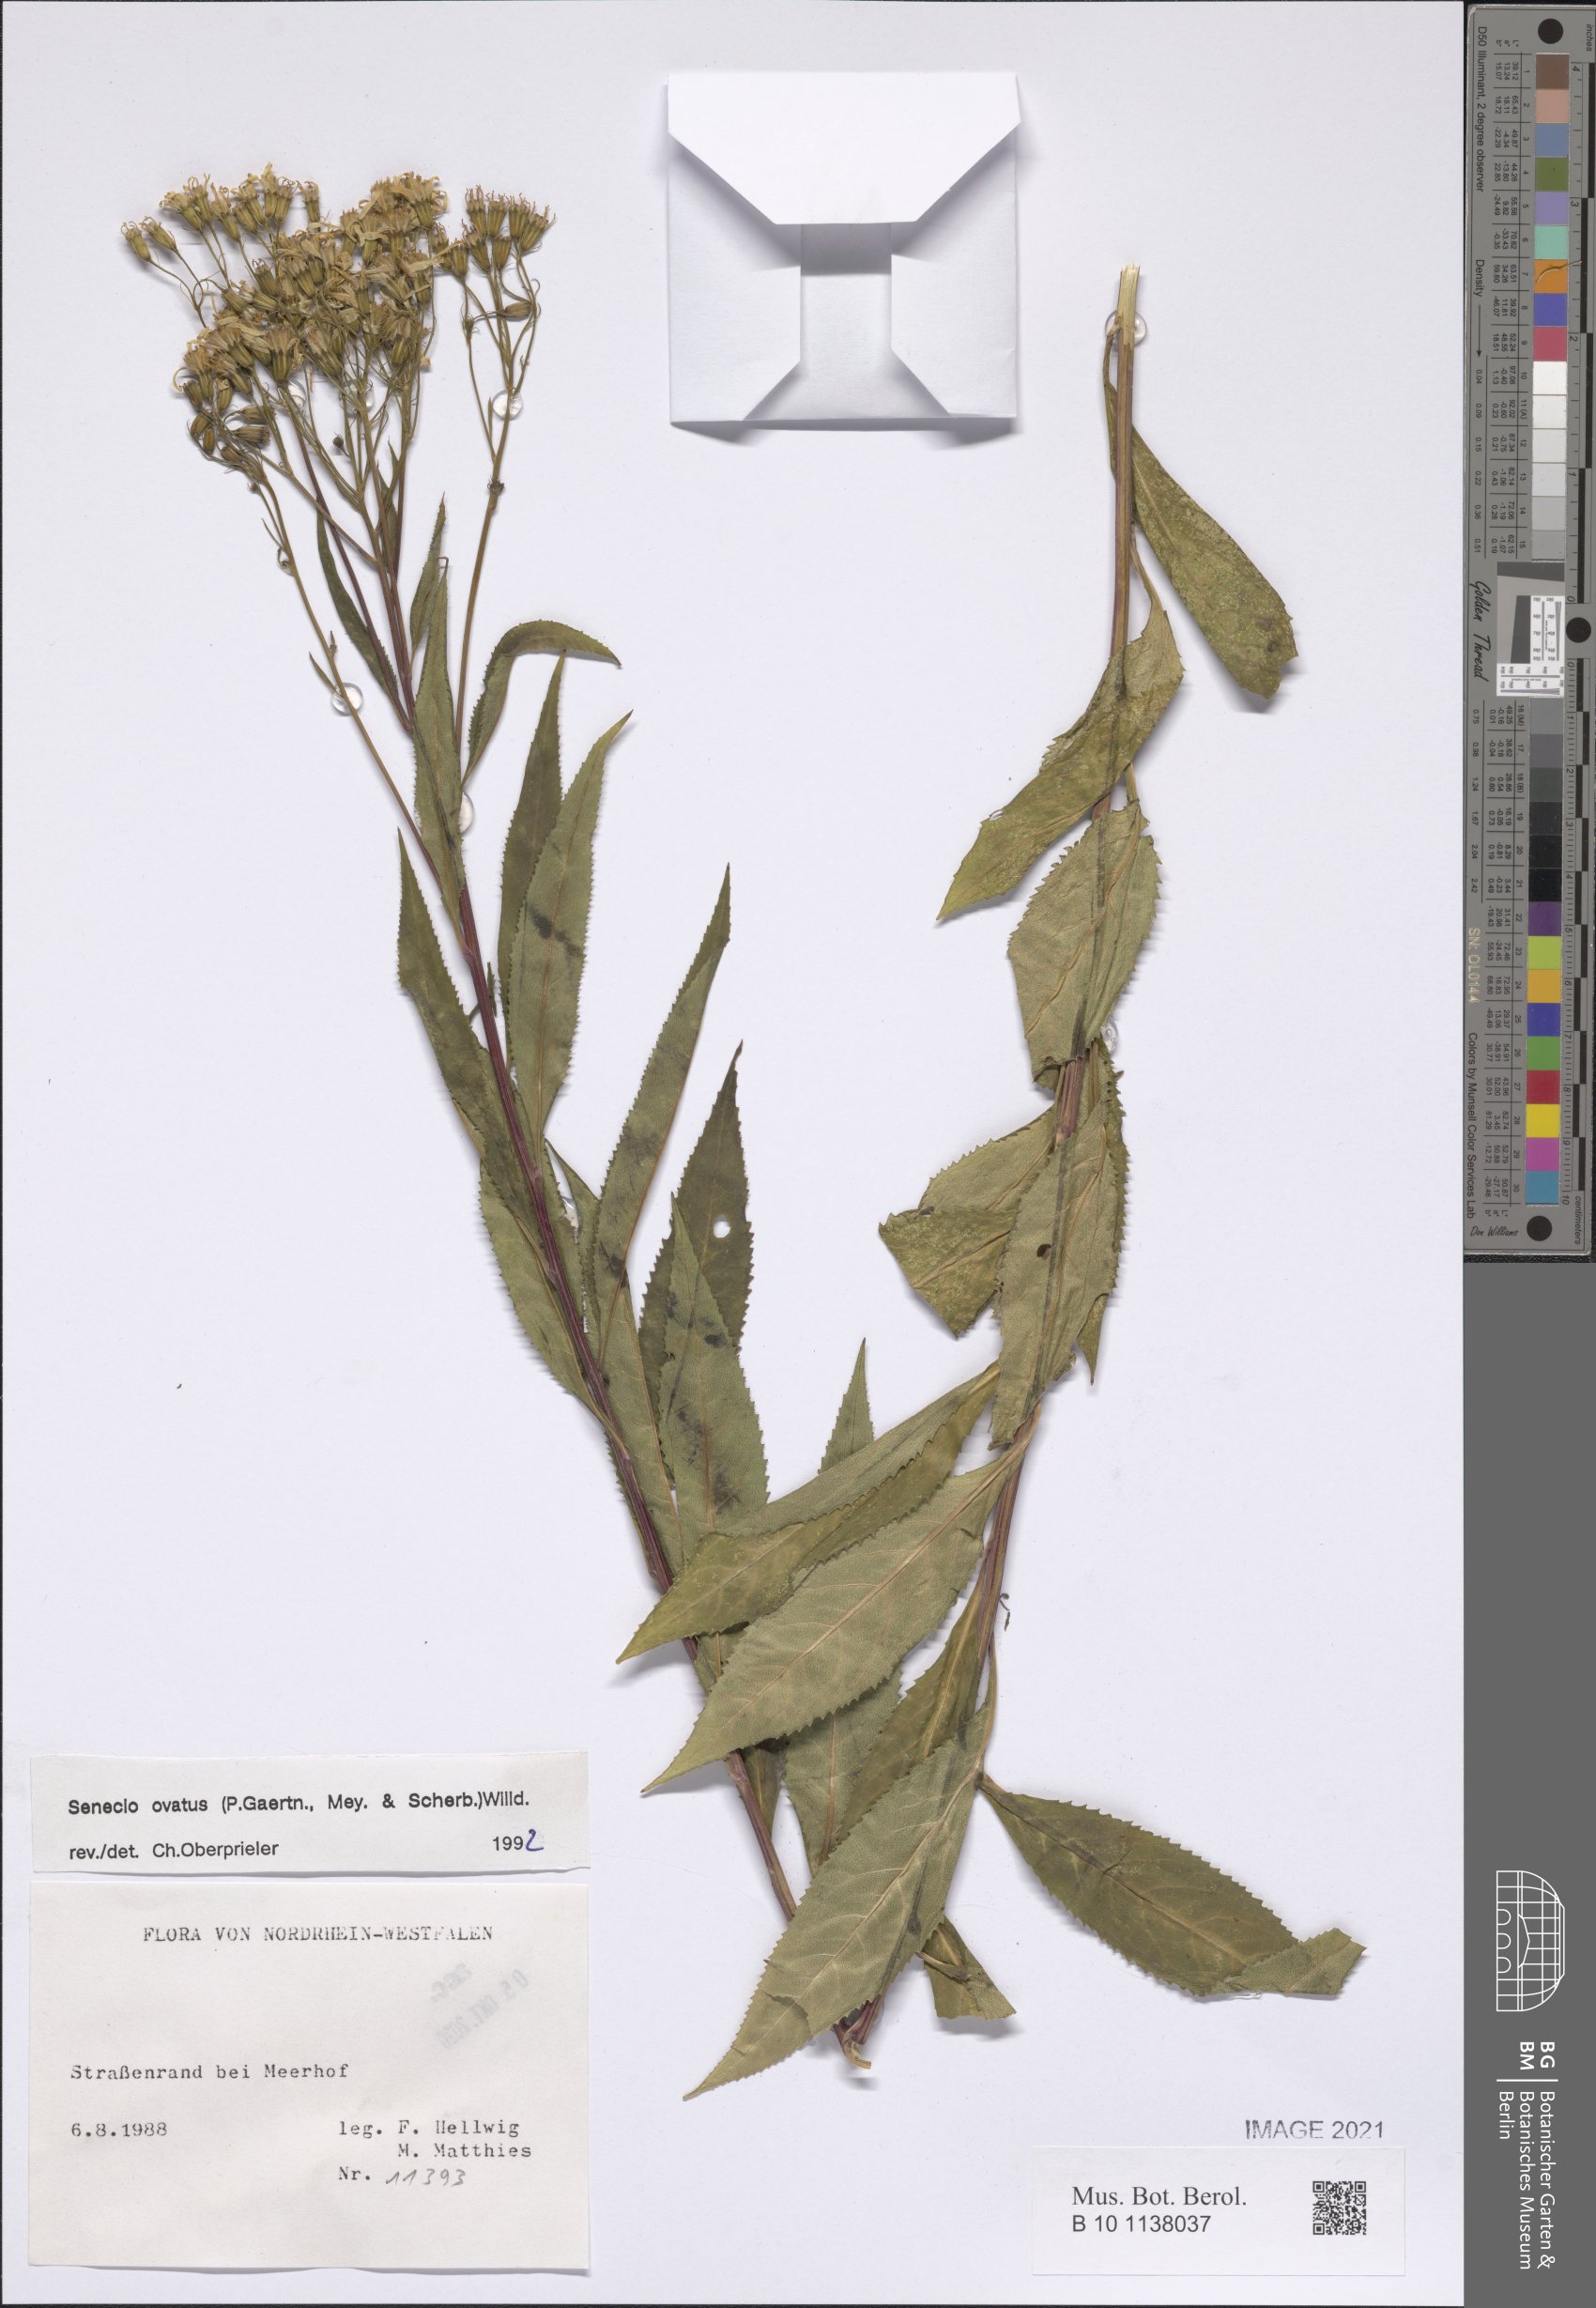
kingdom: Plantae
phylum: Tracheophyta
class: Magnoliopsida
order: Asterales
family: Asteraceae
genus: Senecio
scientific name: Senecio ovatus
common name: Wood ragwort
